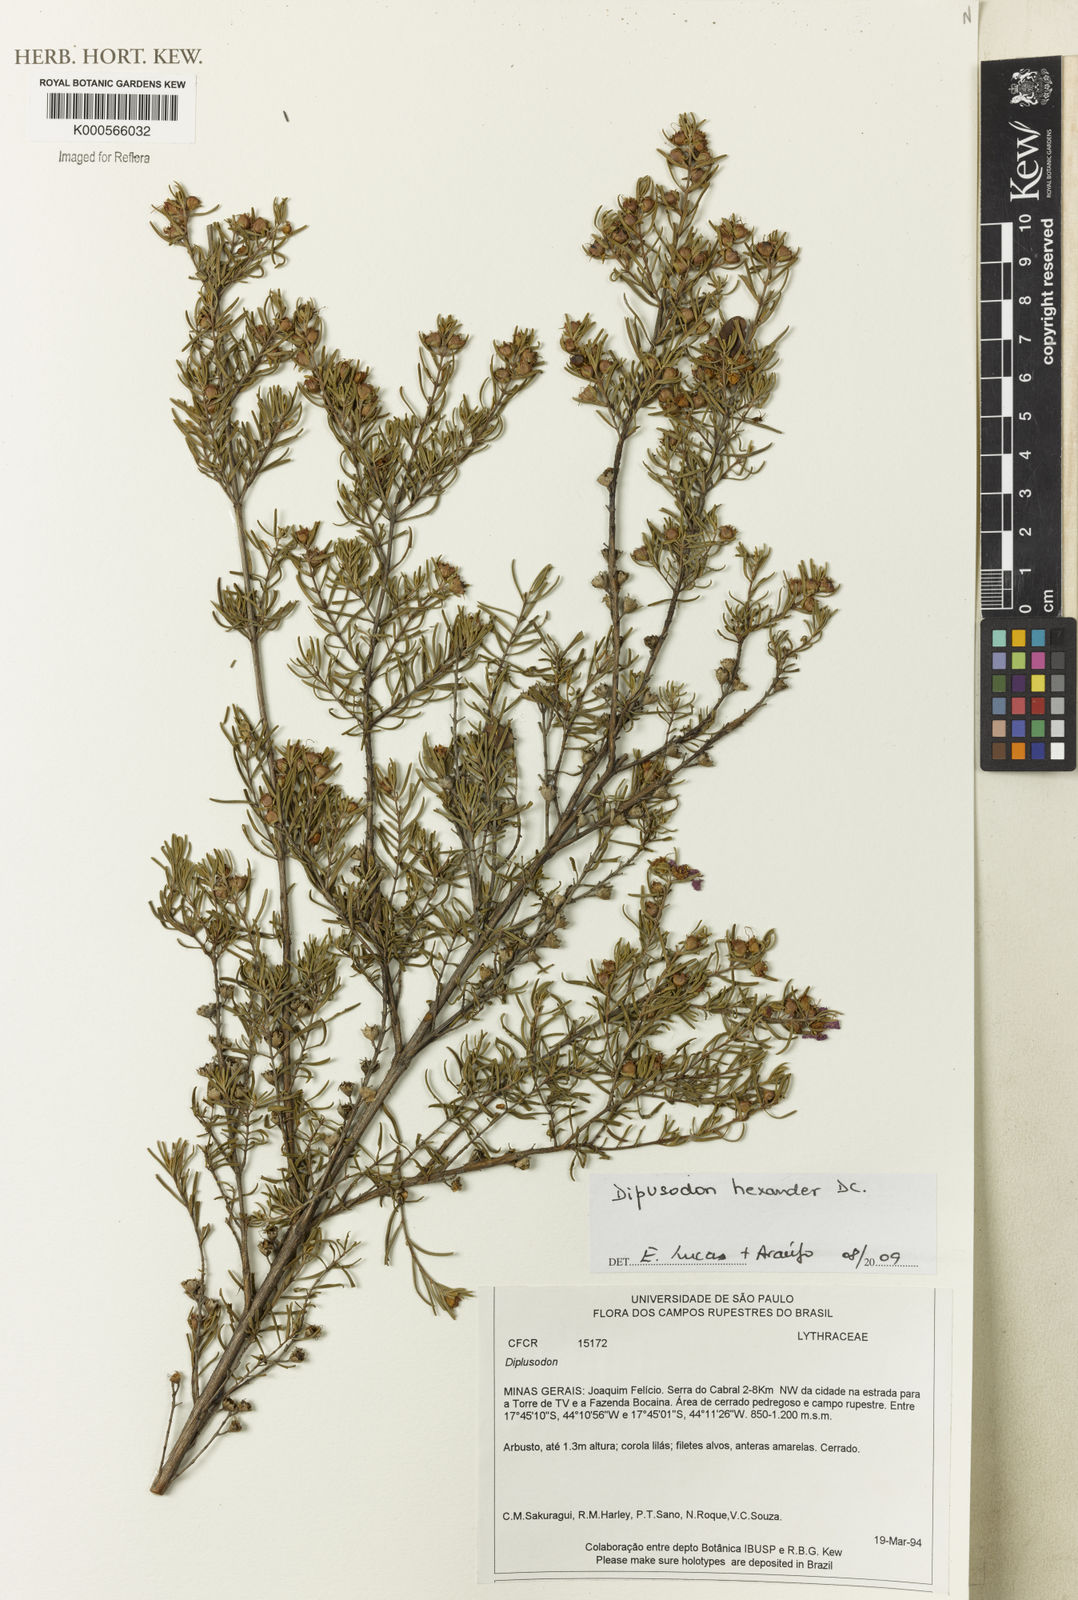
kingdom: Plantae
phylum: Tracheophyta
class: Magnoliopsida
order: Myrtales
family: Lythraceae
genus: Diplusodon
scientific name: Diplusodon hexander
